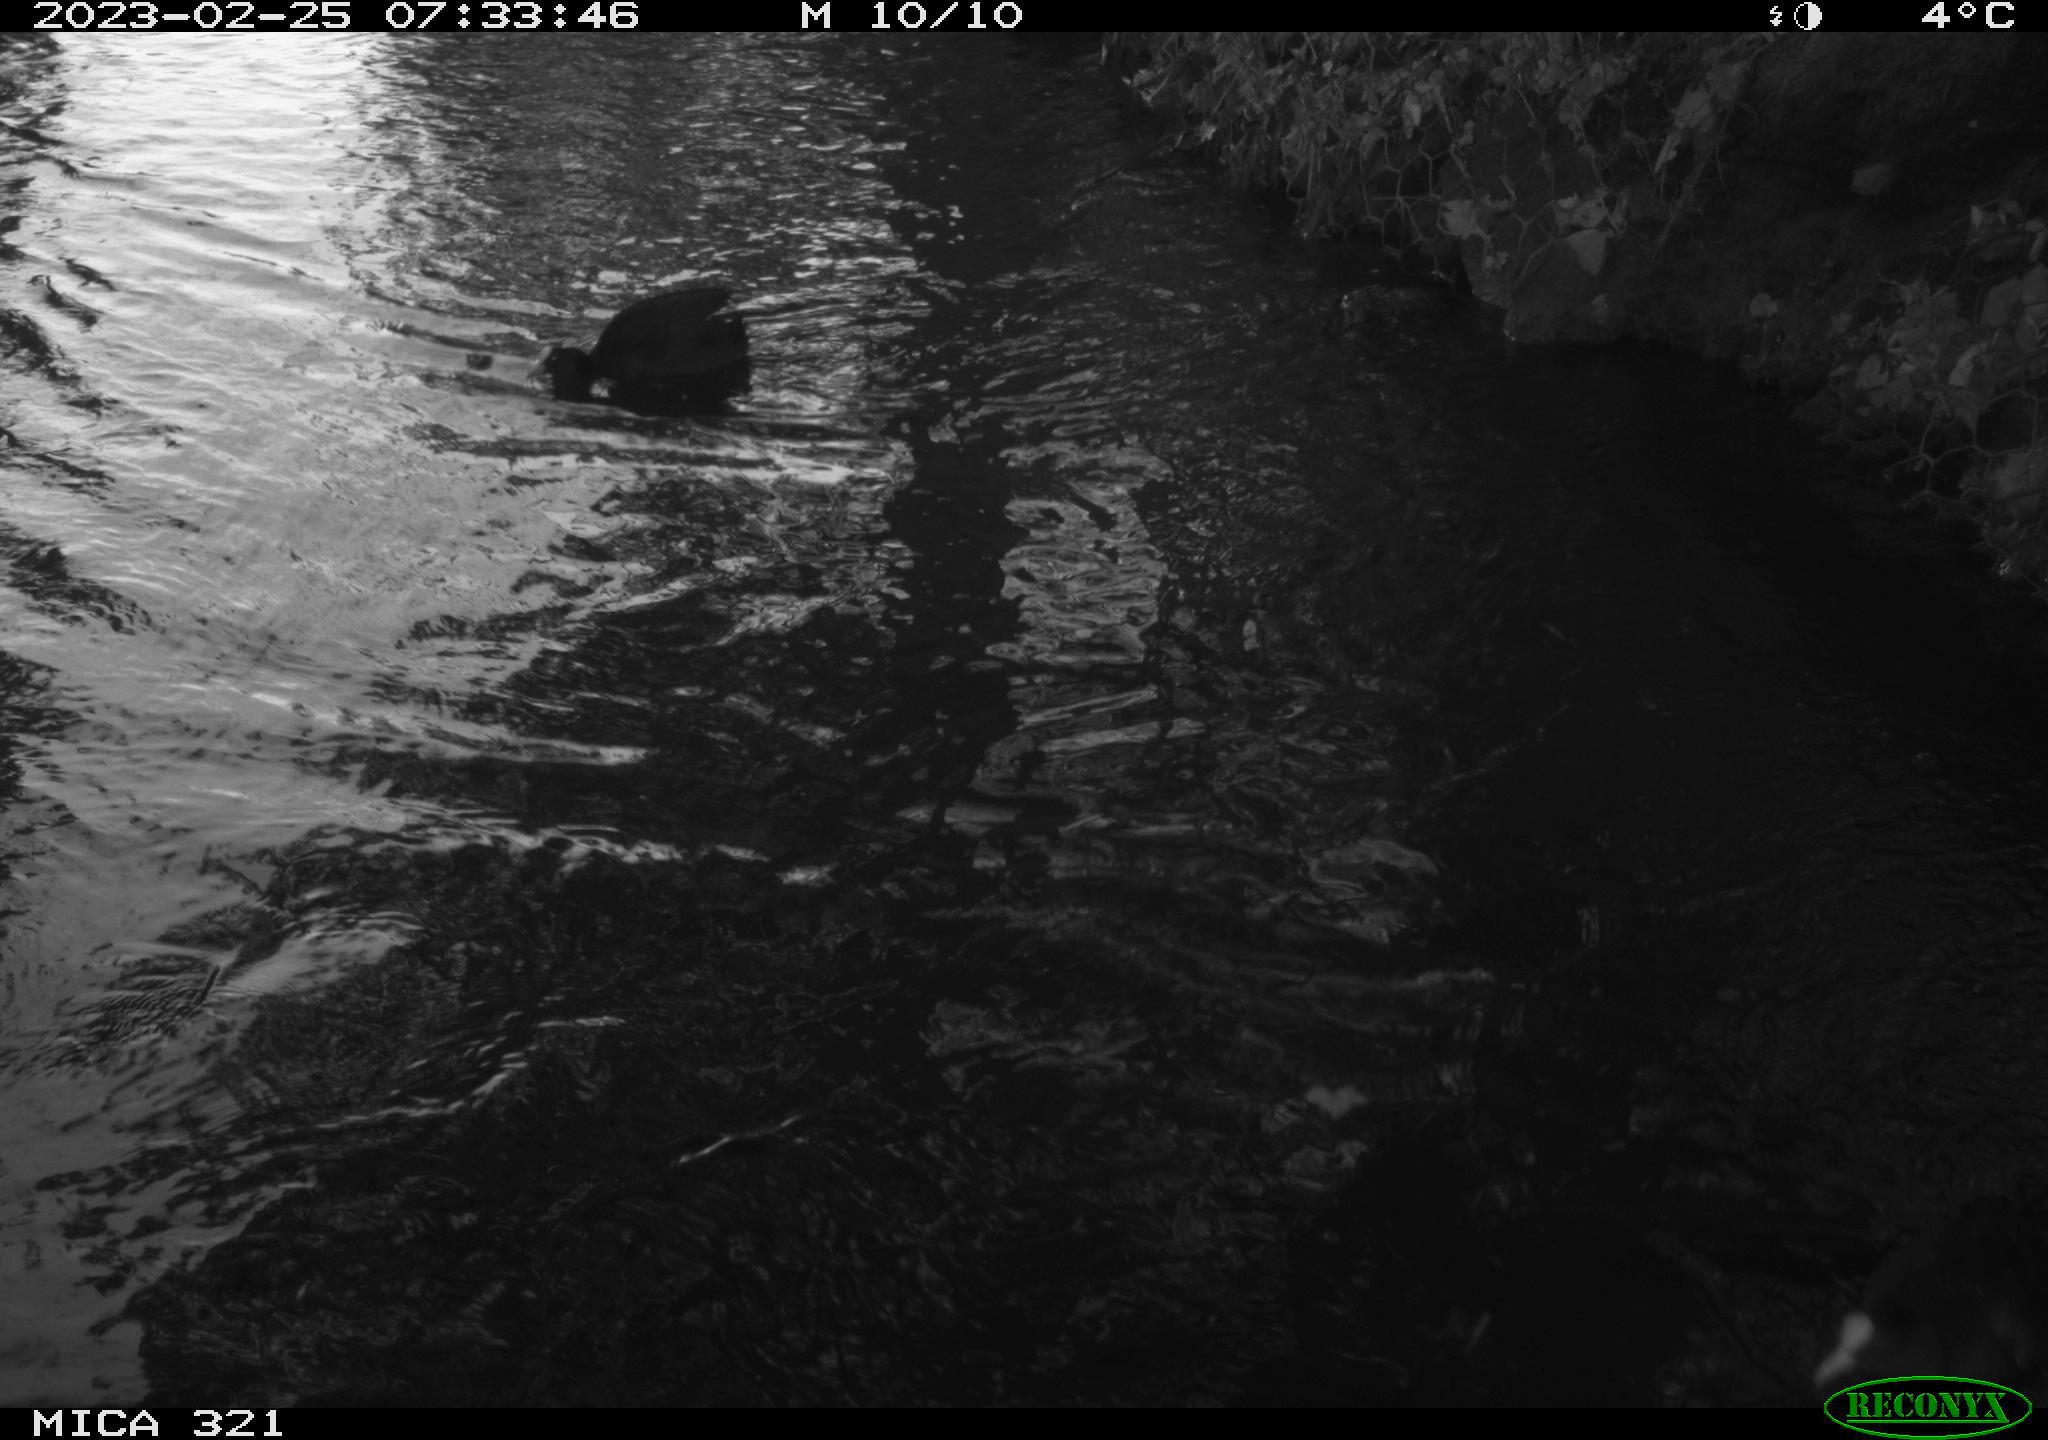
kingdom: Animalia
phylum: Chordata
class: Aves
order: Gruiformes
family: Rallidae
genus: Fulica
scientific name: Fulica atra
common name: Eurasian coot
